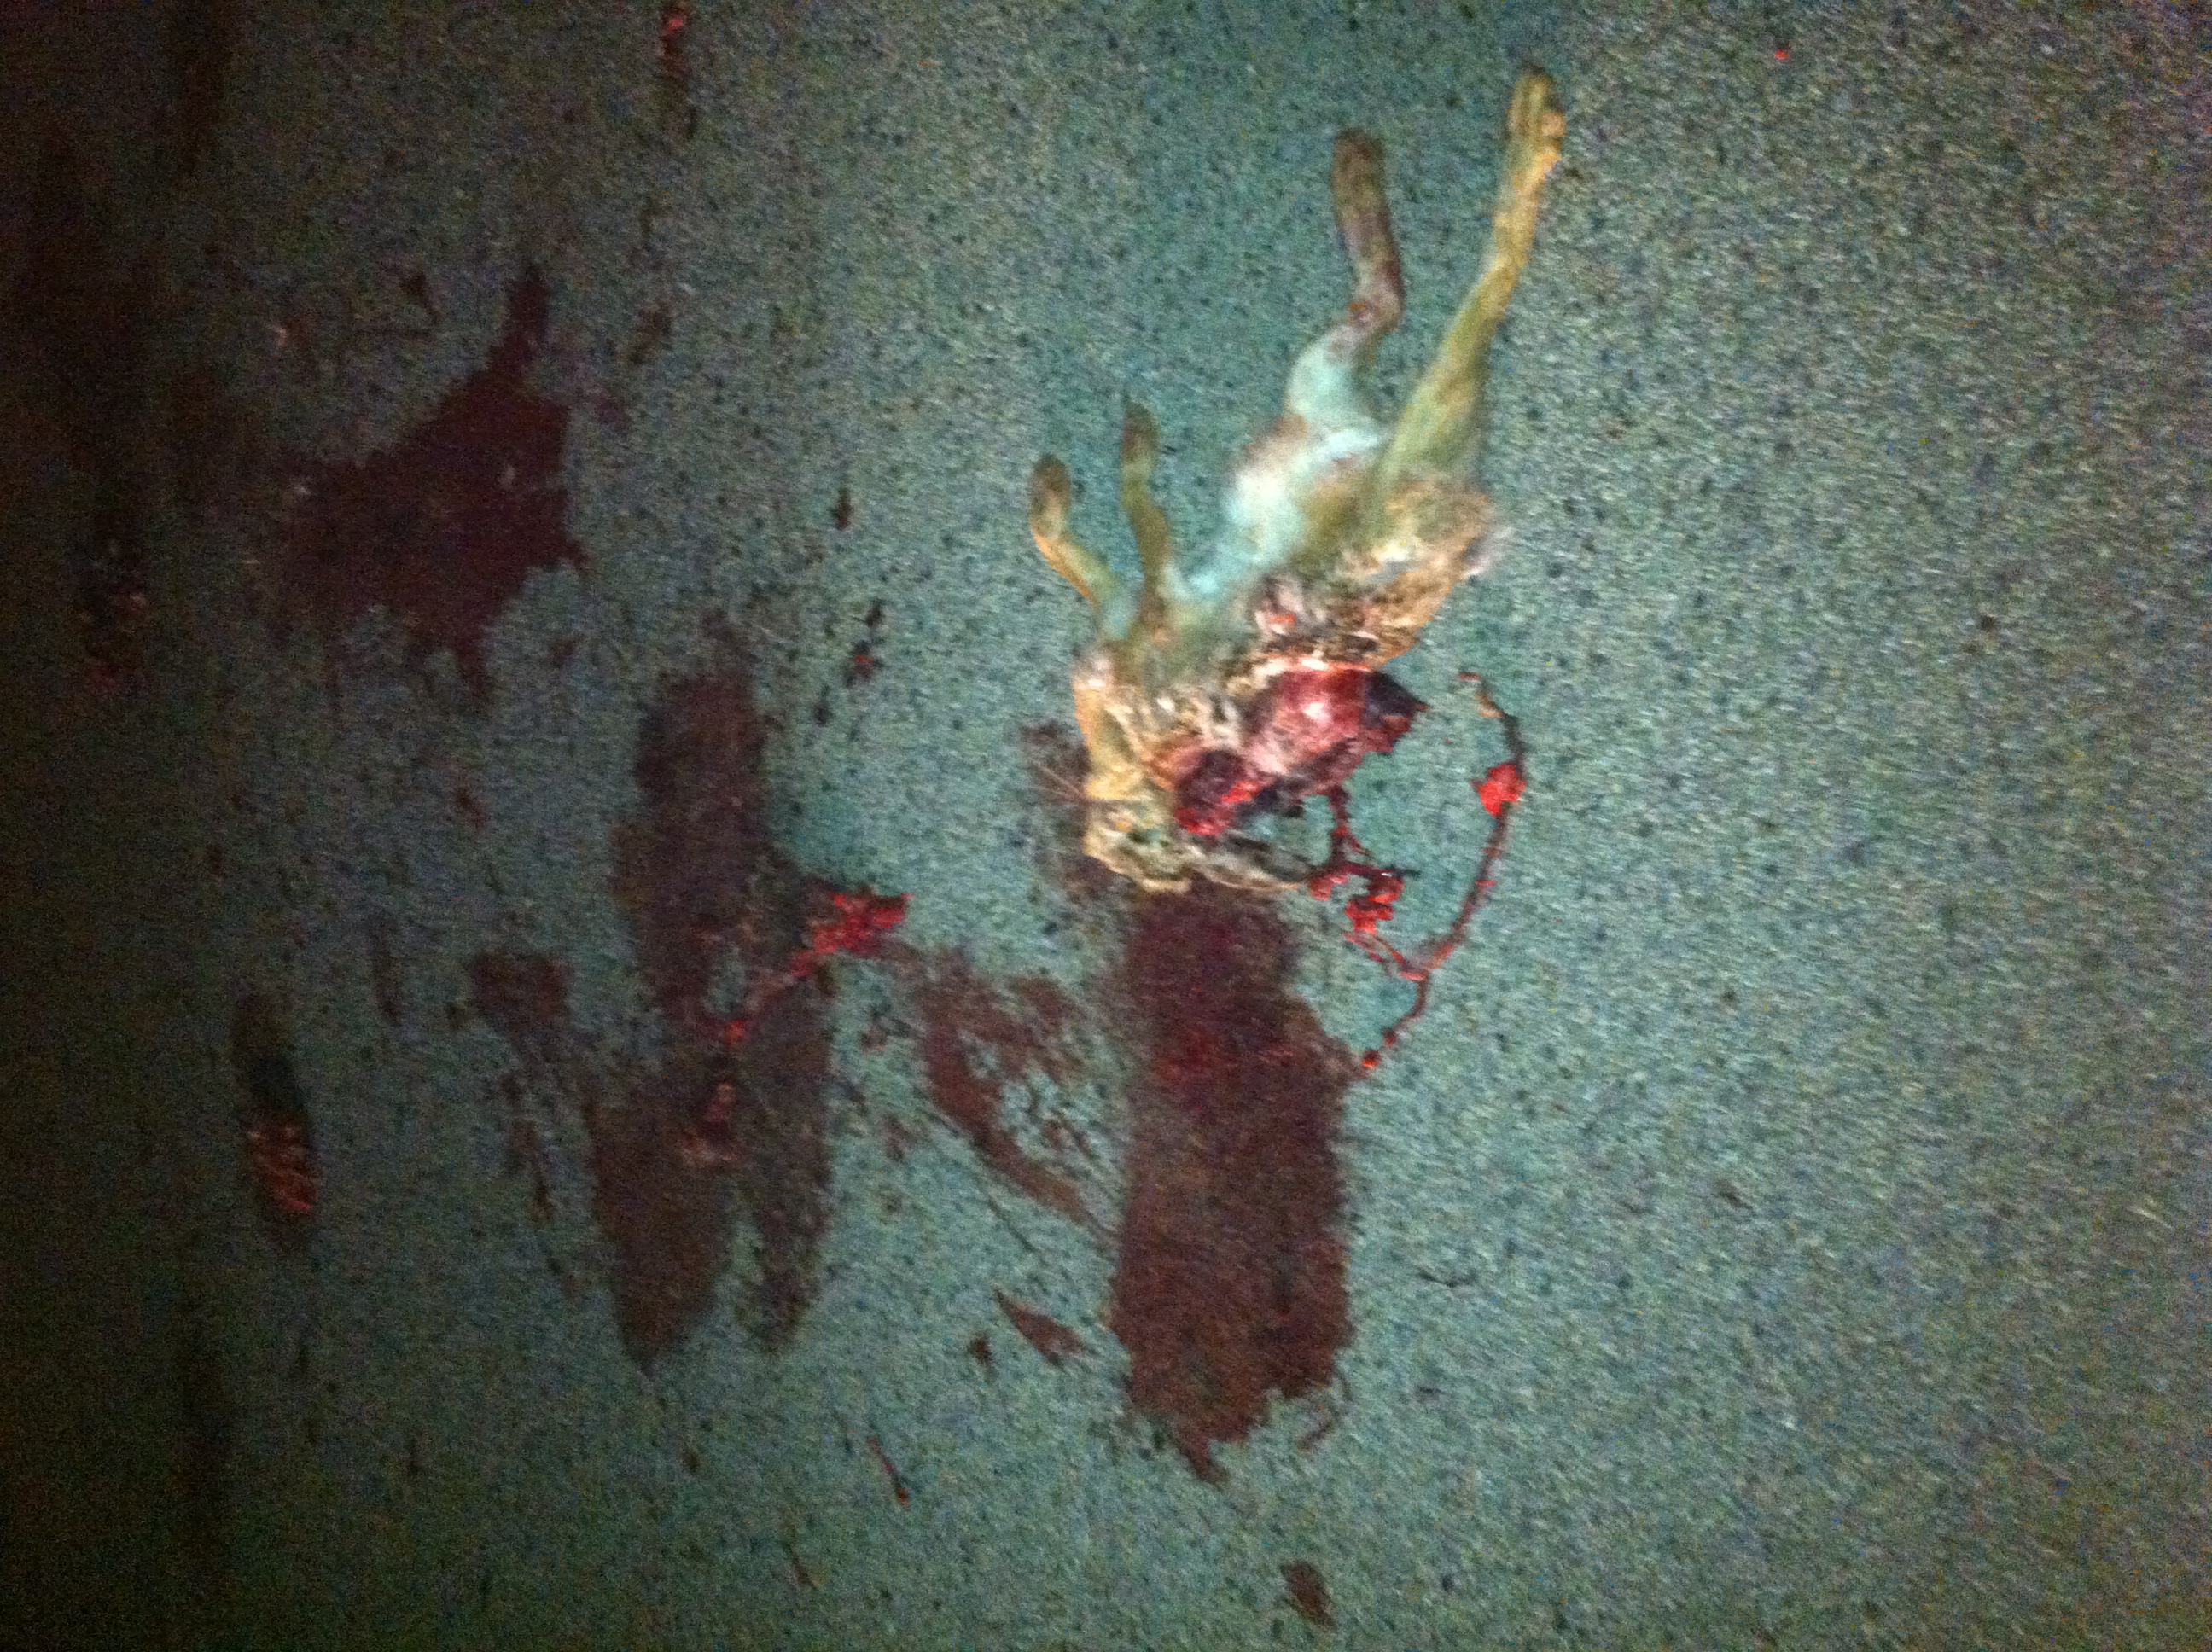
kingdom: Animalia
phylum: Chordata
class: Mammalia
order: Lagomorpha
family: Leporidae
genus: Lepus
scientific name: Lepus europaeus
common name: European hare
